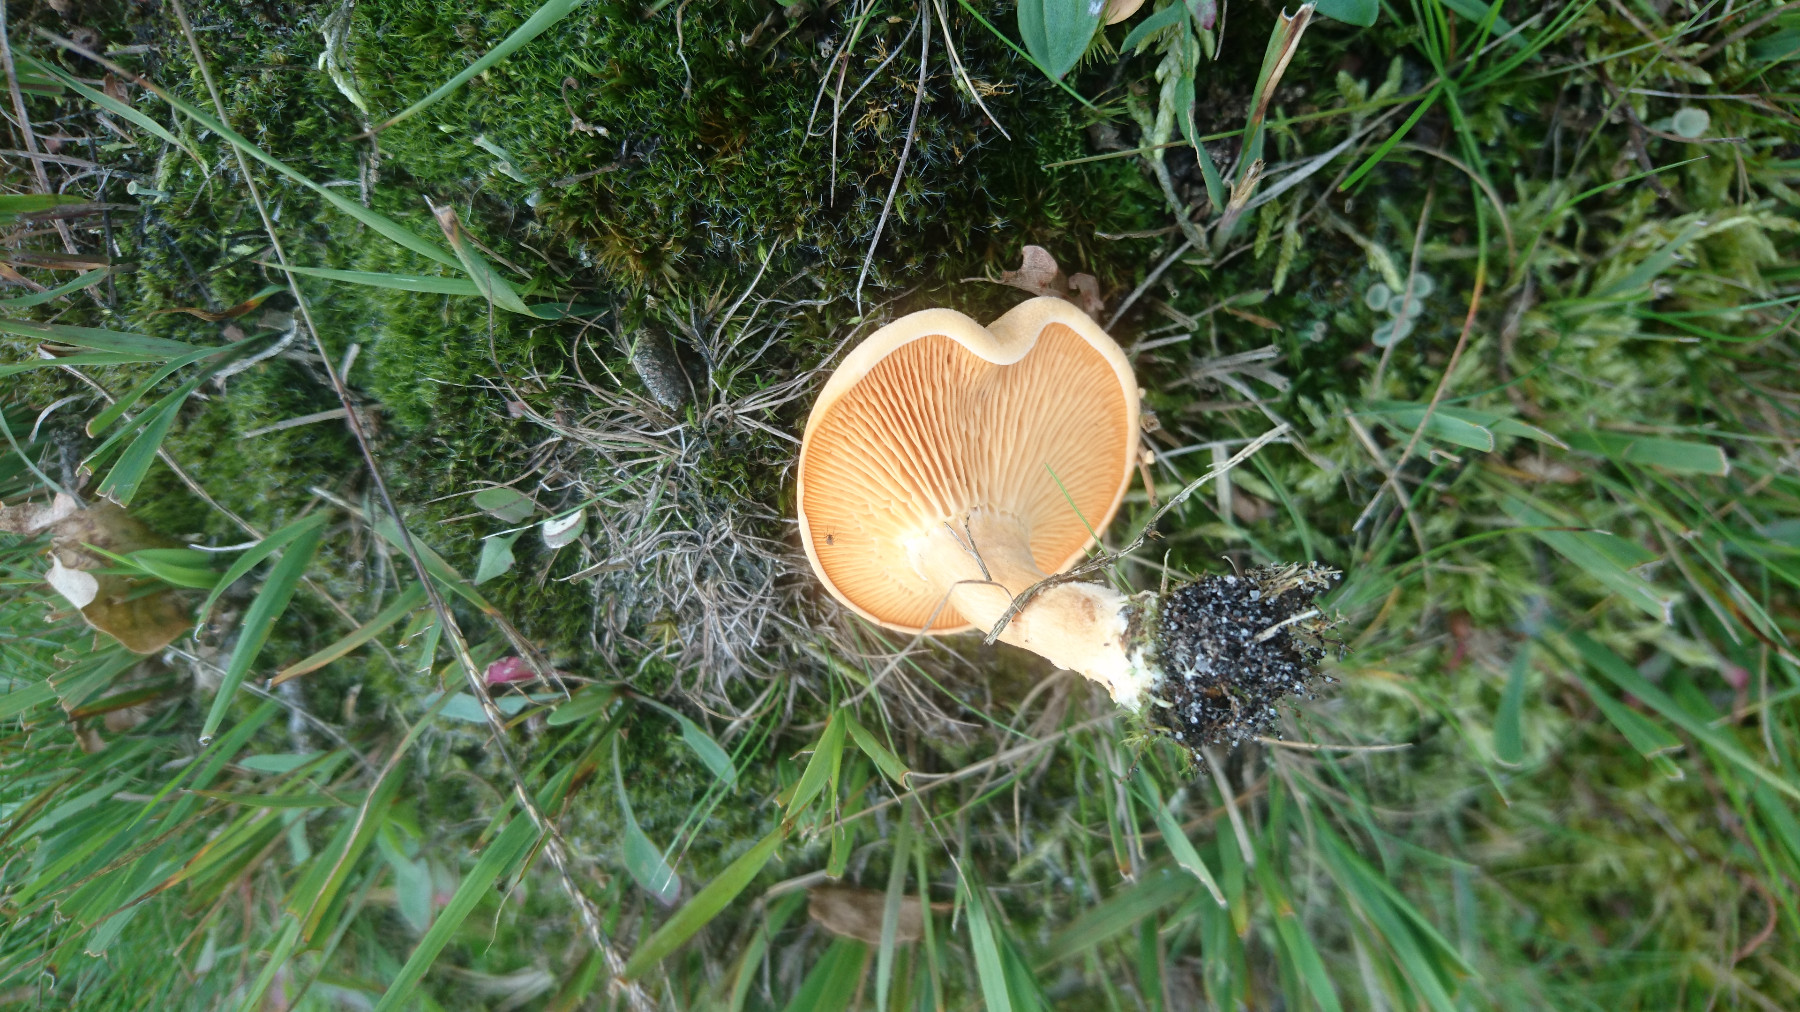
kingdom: Fungi
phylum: Basidiomycota
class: Agaricomycetes
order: Boletales
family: Hygrophoropsidaceae
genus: Hygrophoropsis
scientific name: Hygrophoropsis aurantiaca
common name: almindelig orangekantarel
